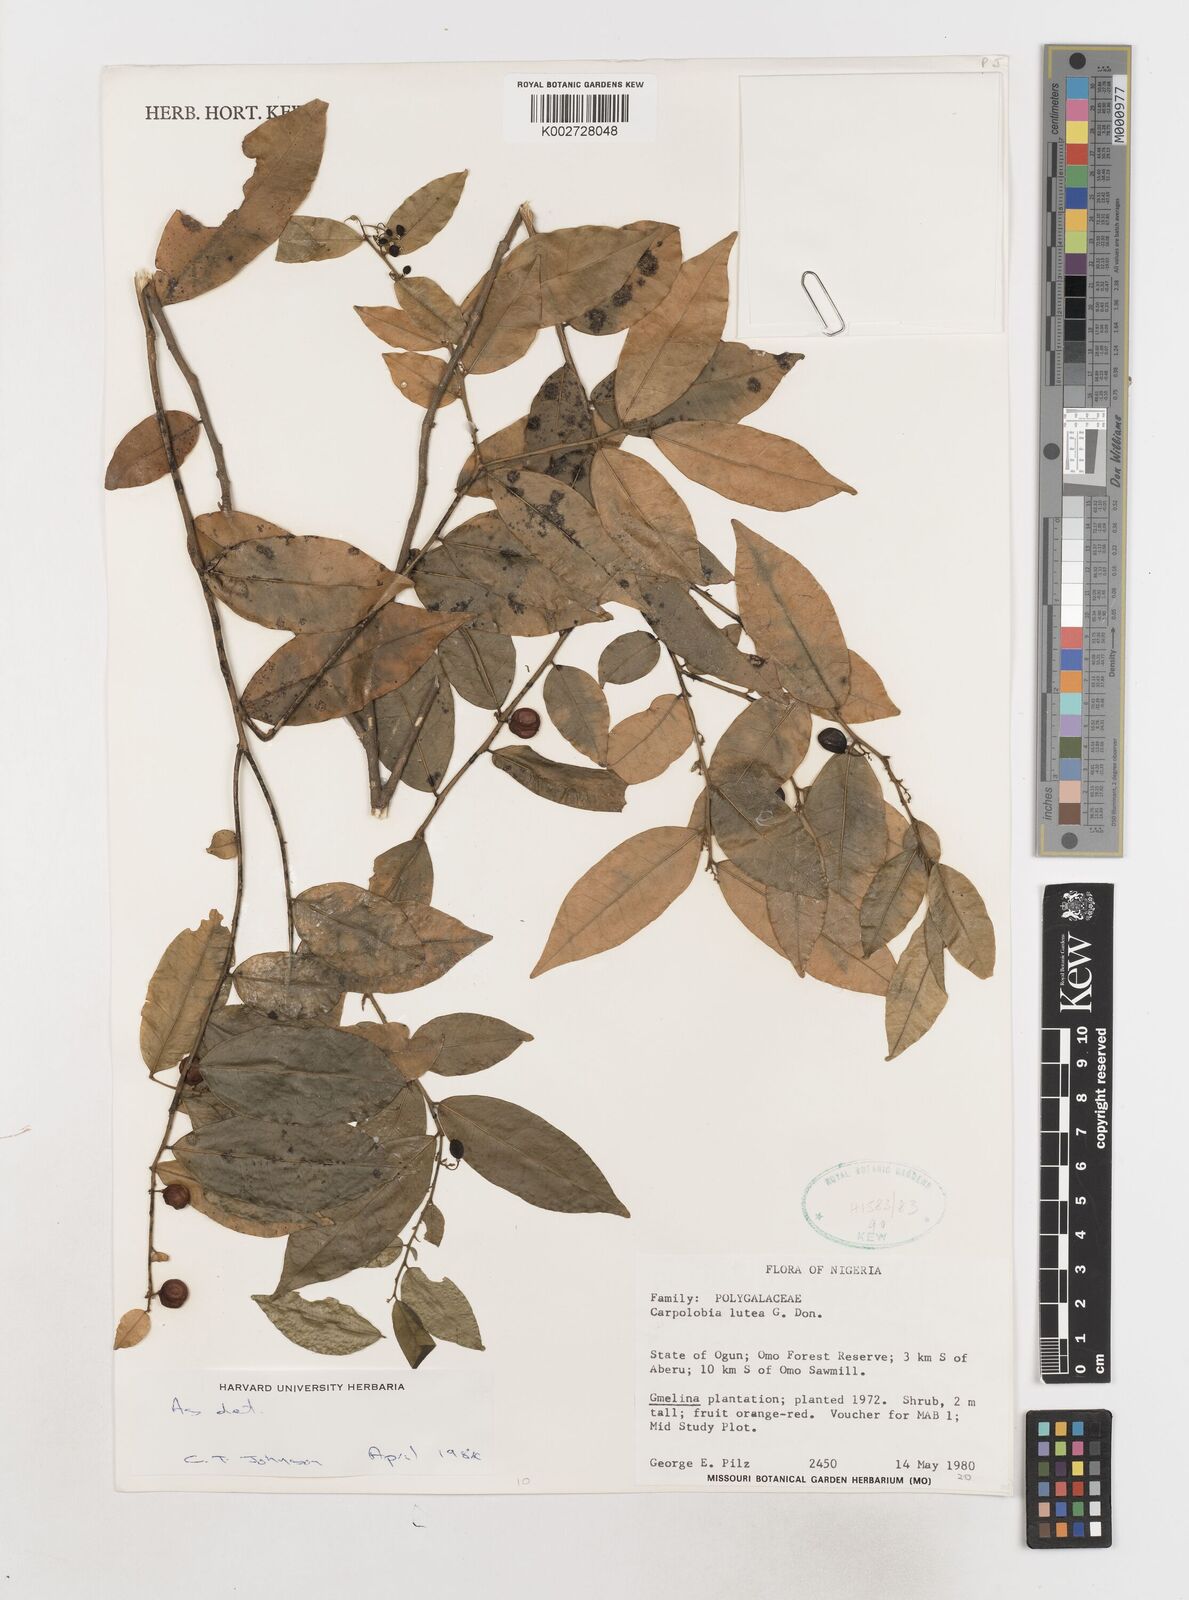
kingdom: Plantae
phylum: Tracheophyta
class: Magnoliopsida
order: Fabales
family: Polygalaceae
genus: Carpolobia
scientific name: Carpolobia lutea
